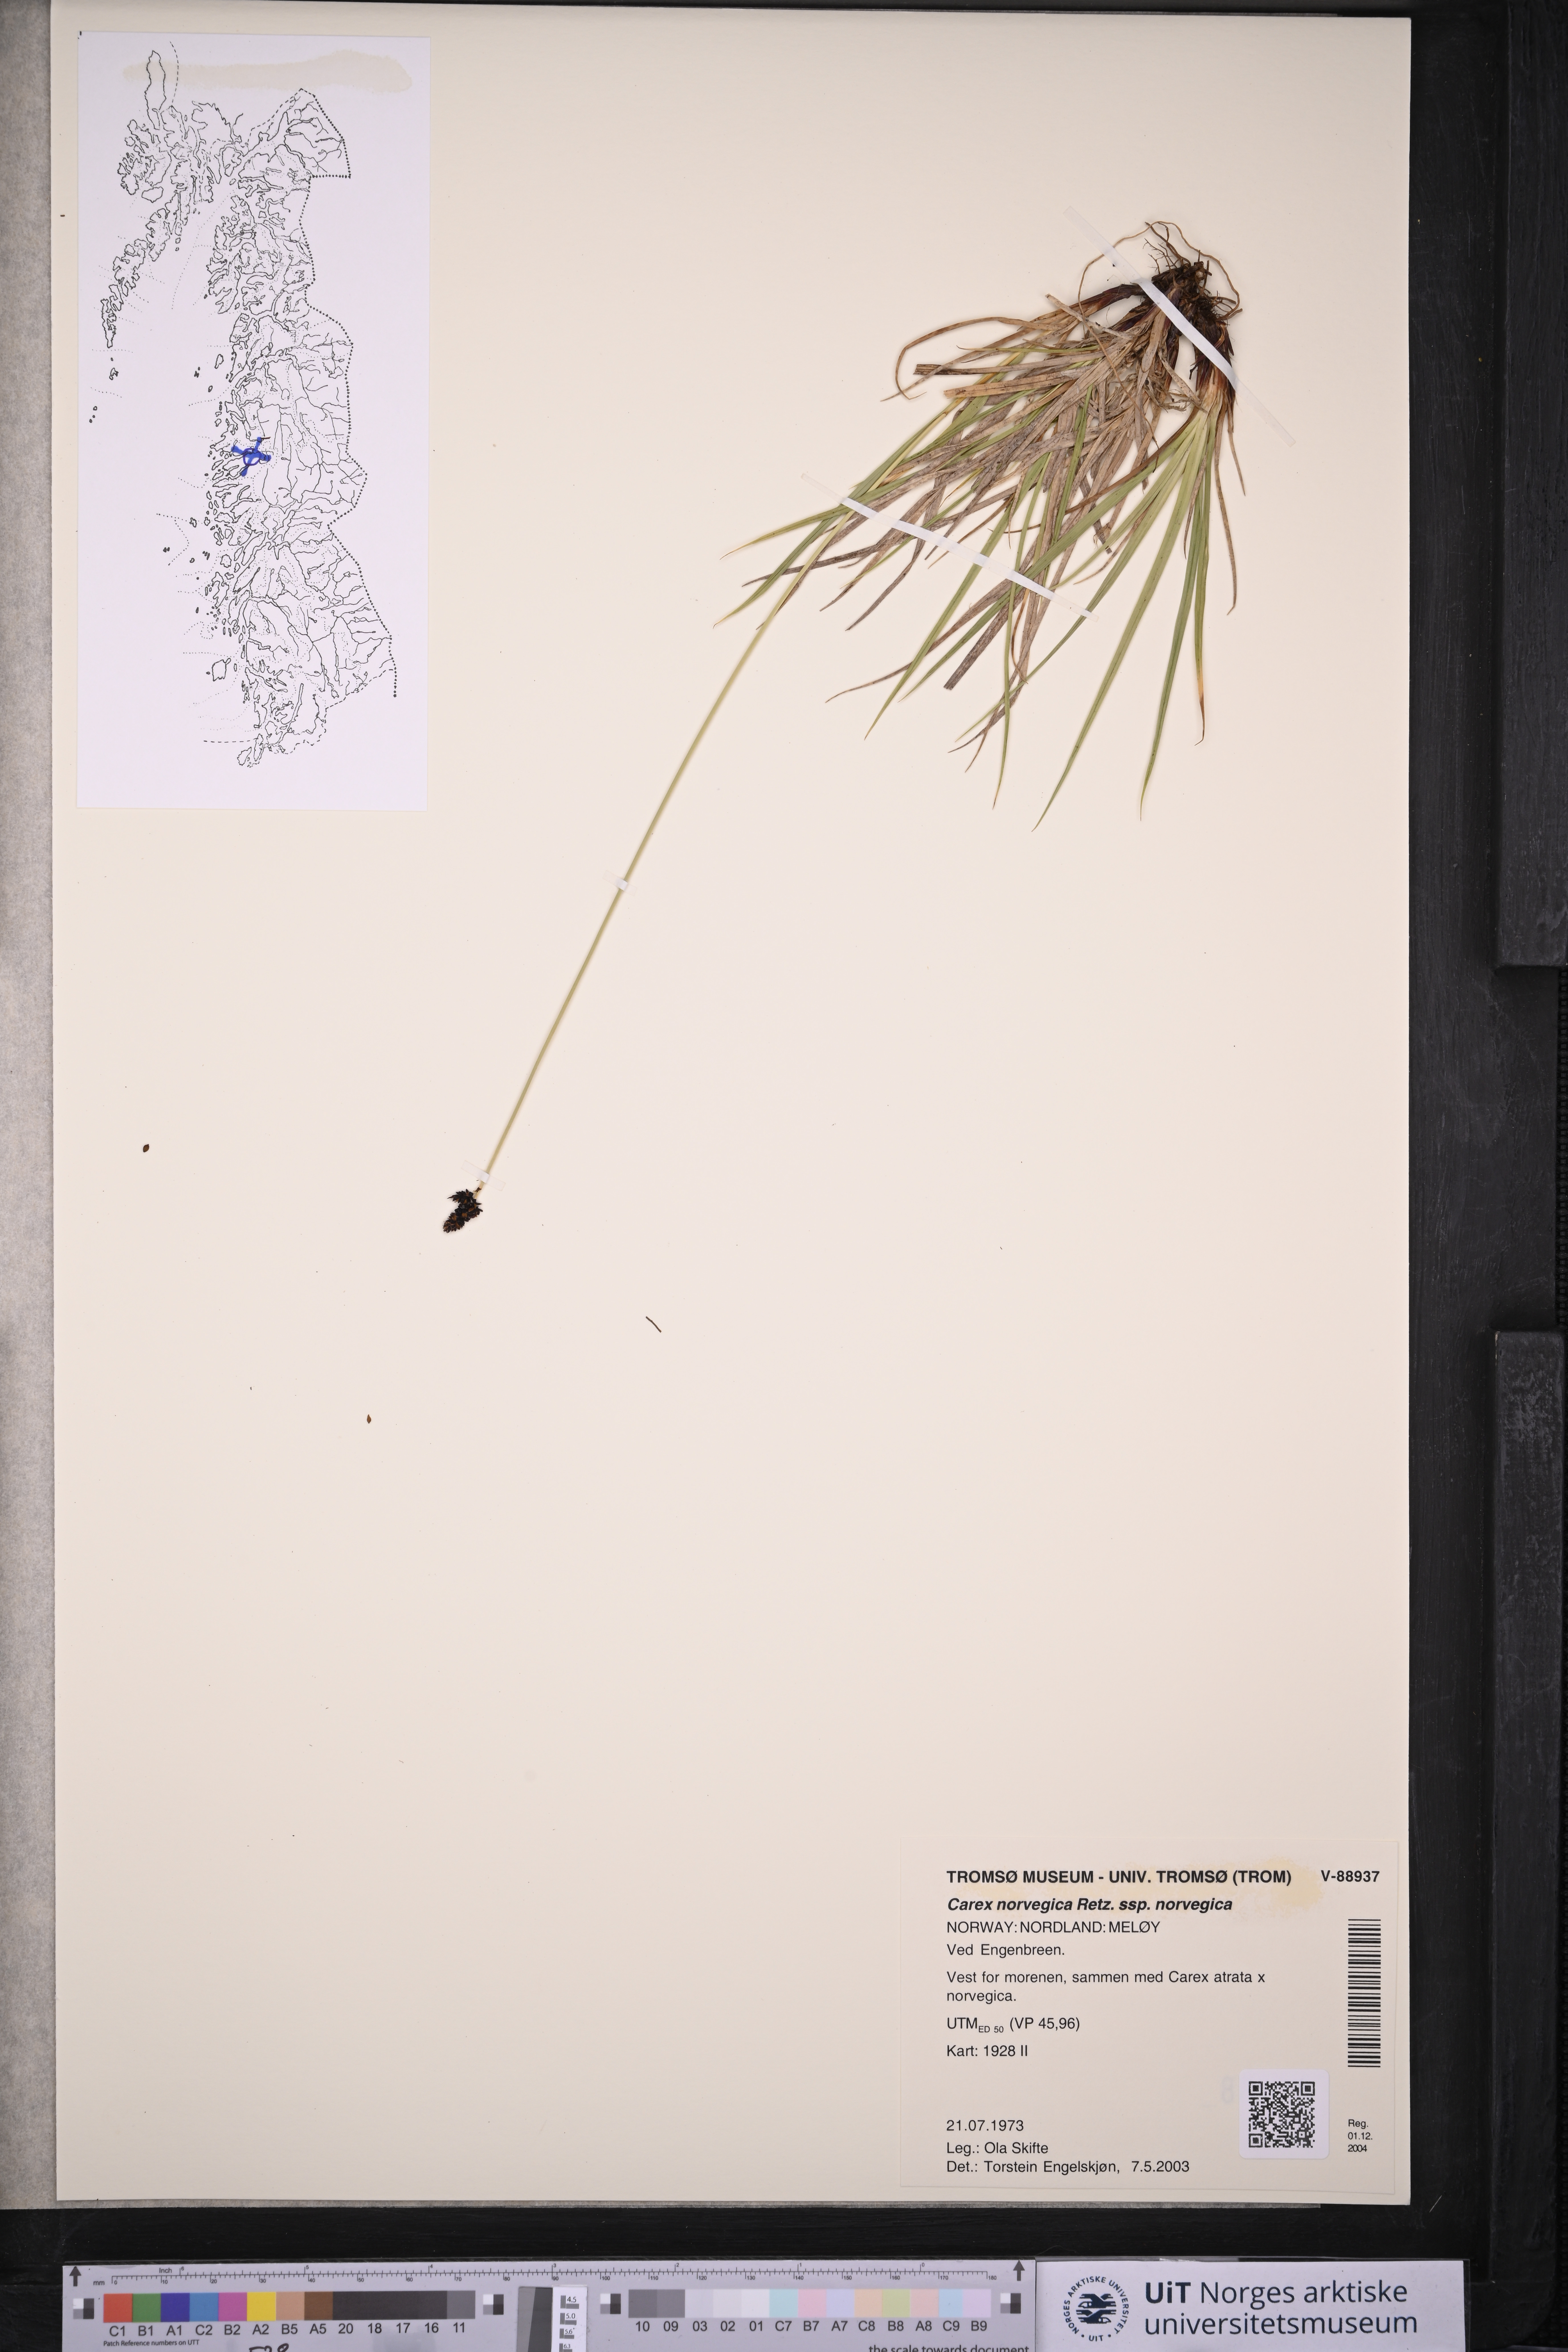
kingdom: Plantae
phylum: Tracheophyta
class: Liliopsida
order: Poales
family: Cyperaceae
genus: Carex
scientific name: Carex norvegica
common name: Close-headed alpine-sedge
